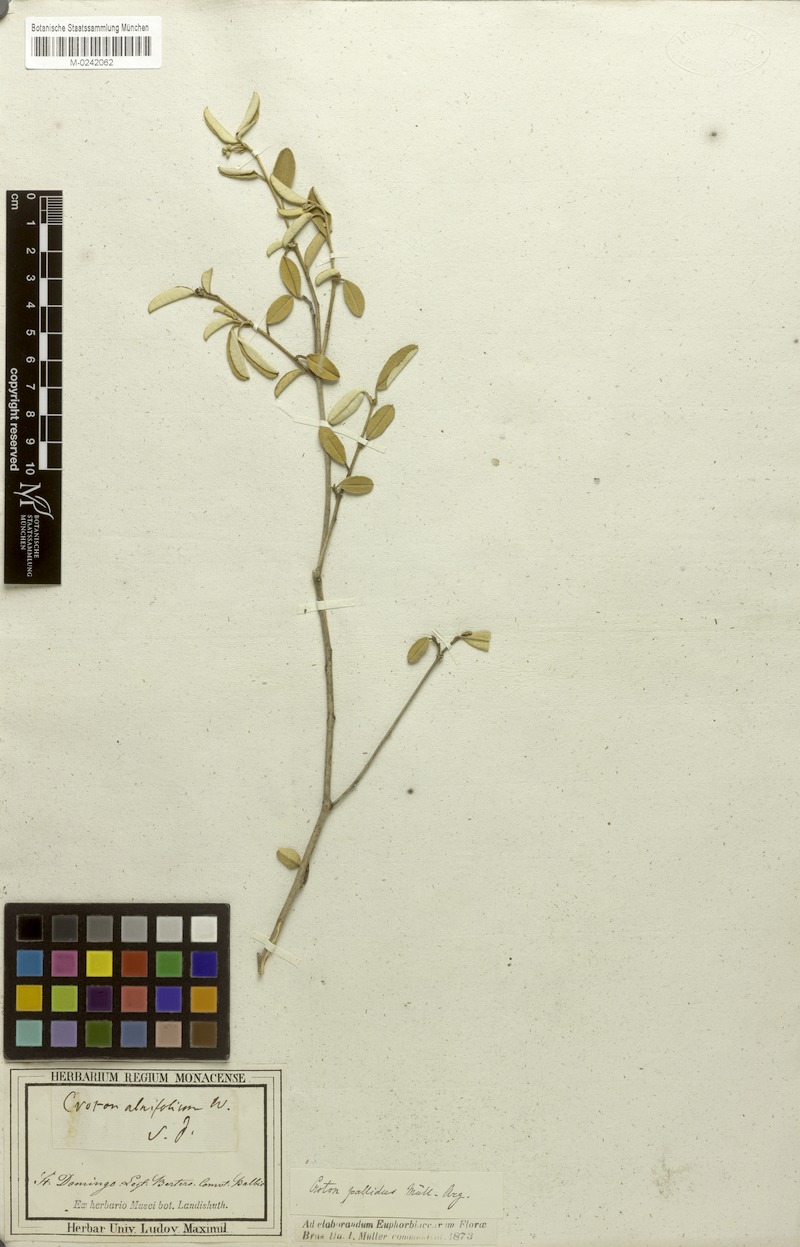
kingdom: Plantae
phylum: Tracheophyta
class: Magnoliopsida
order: Malpighiales
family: Euphorbiaceae
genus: Croton
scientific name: Croton pallidus
